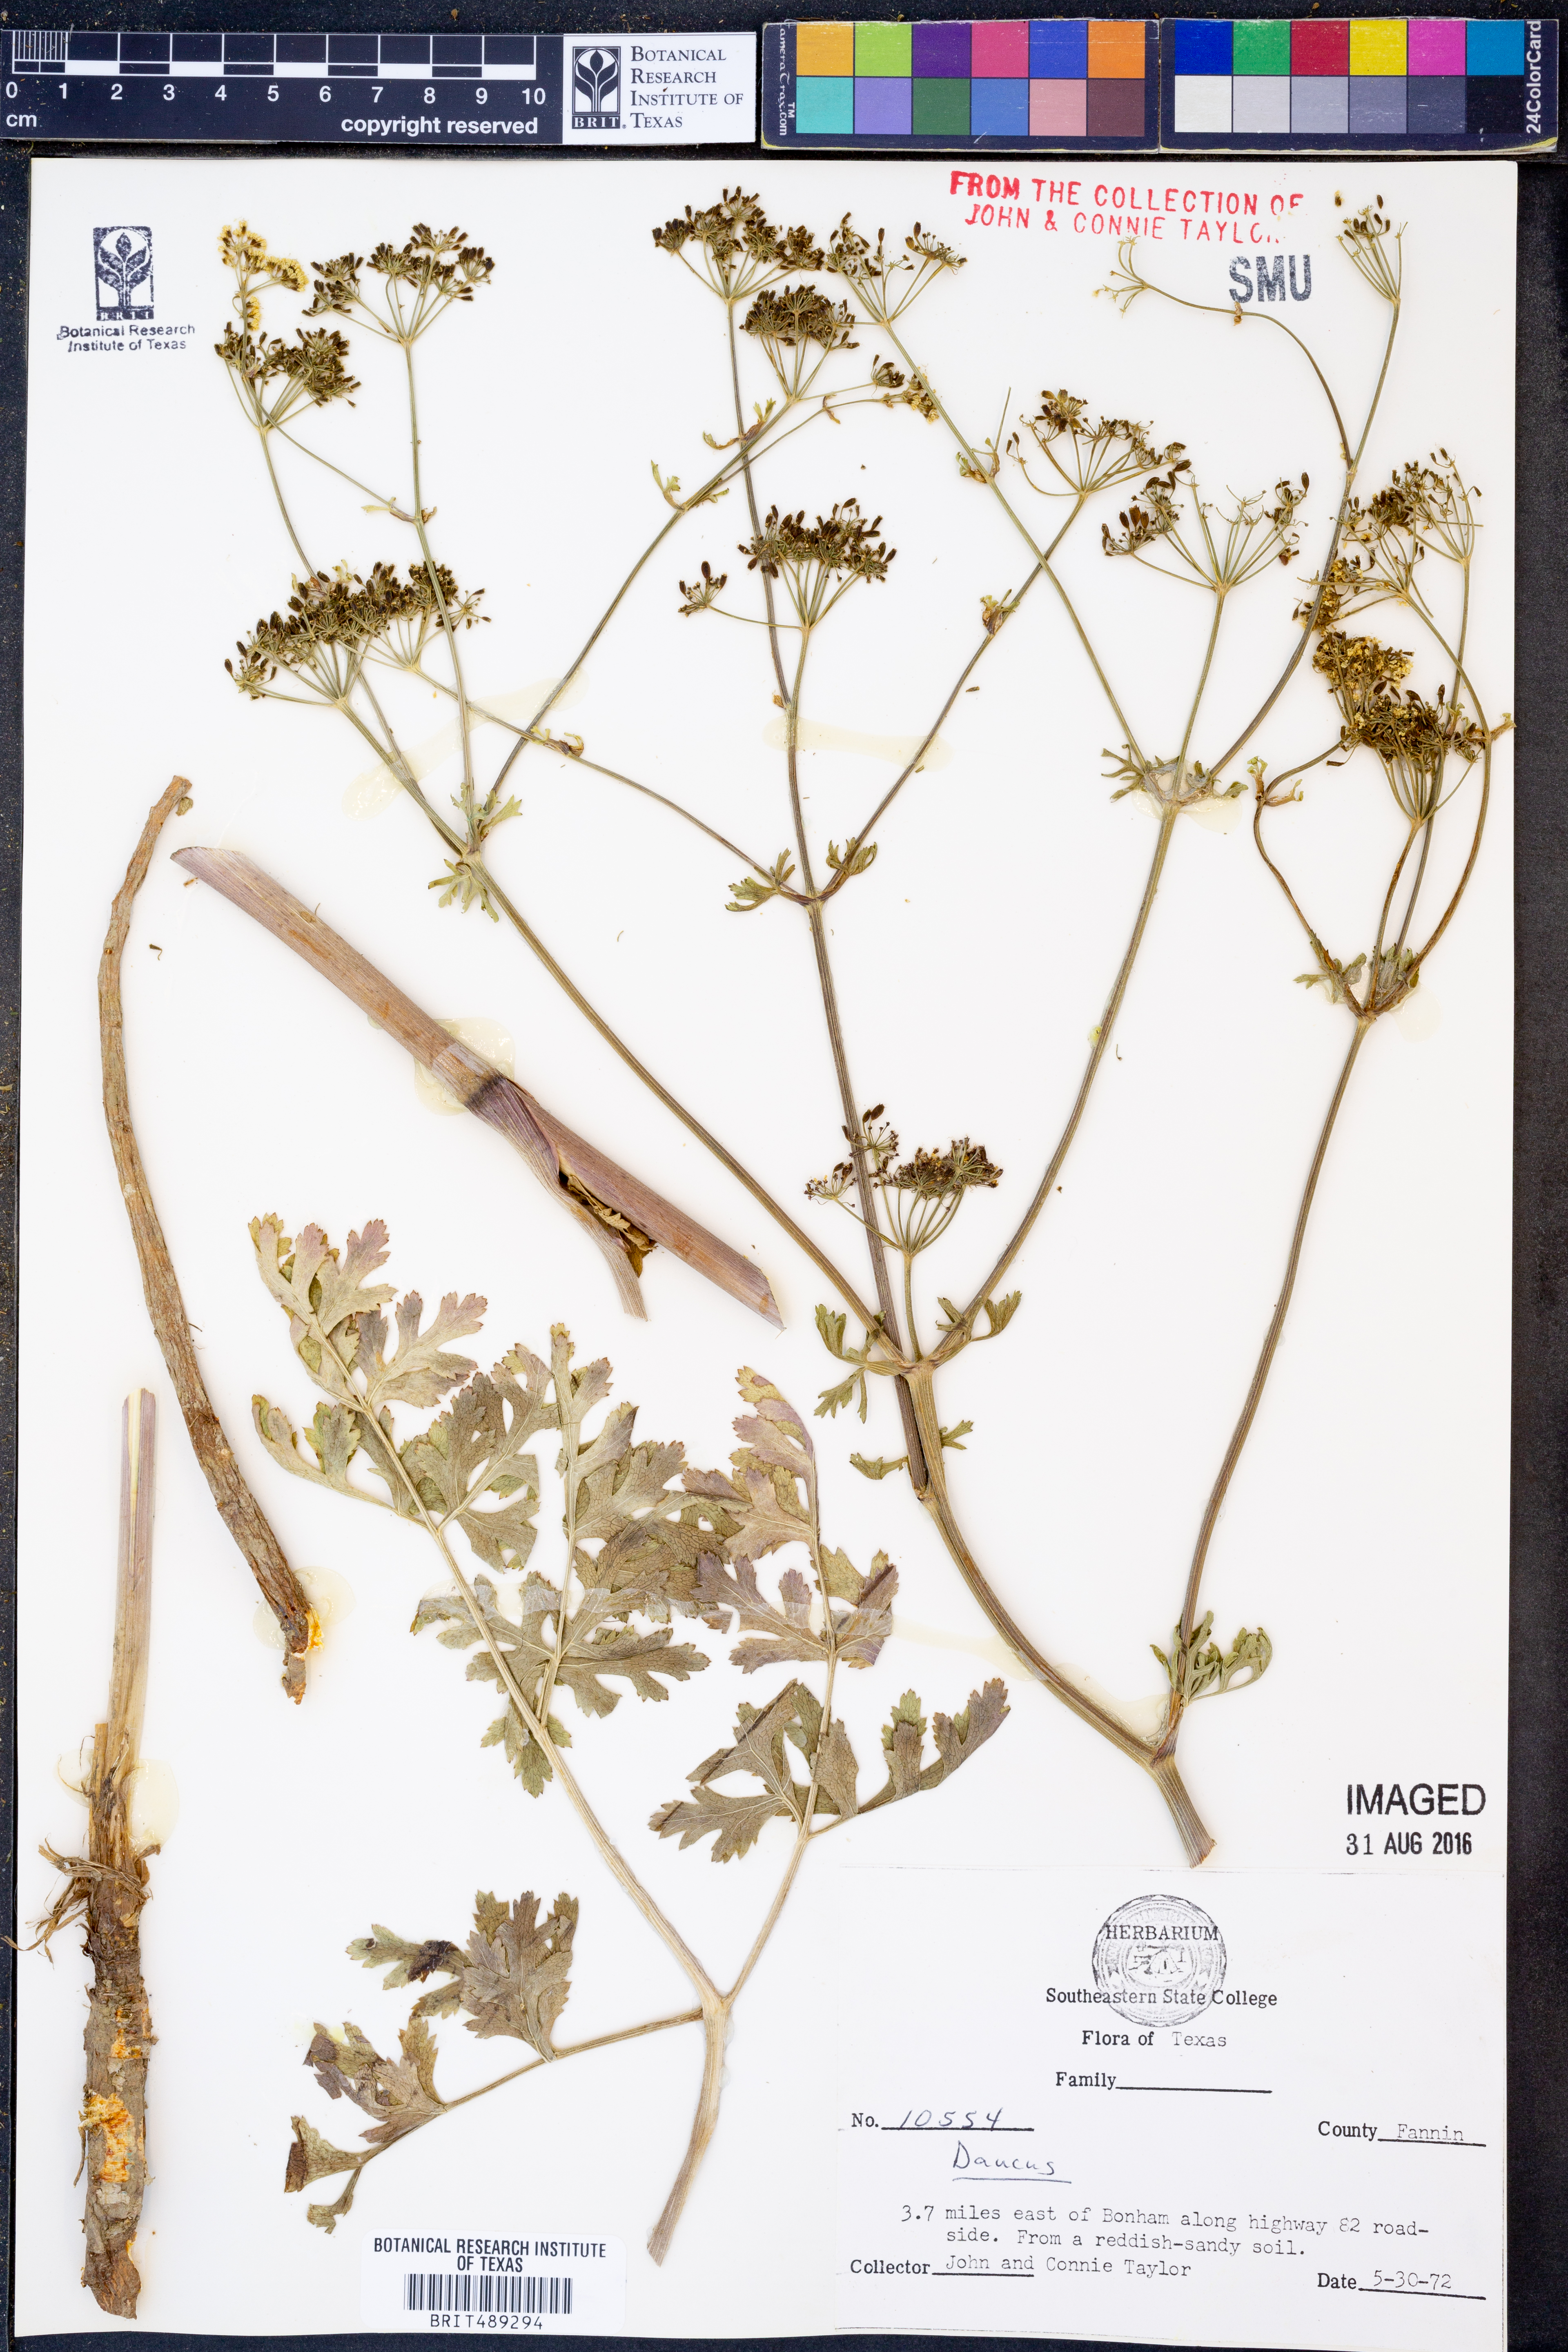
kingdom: Plantae
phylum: Tracheophyta
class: Magnoliopsida
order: Apiales
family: Apiaceae
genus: Daucus
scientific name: Daucus
